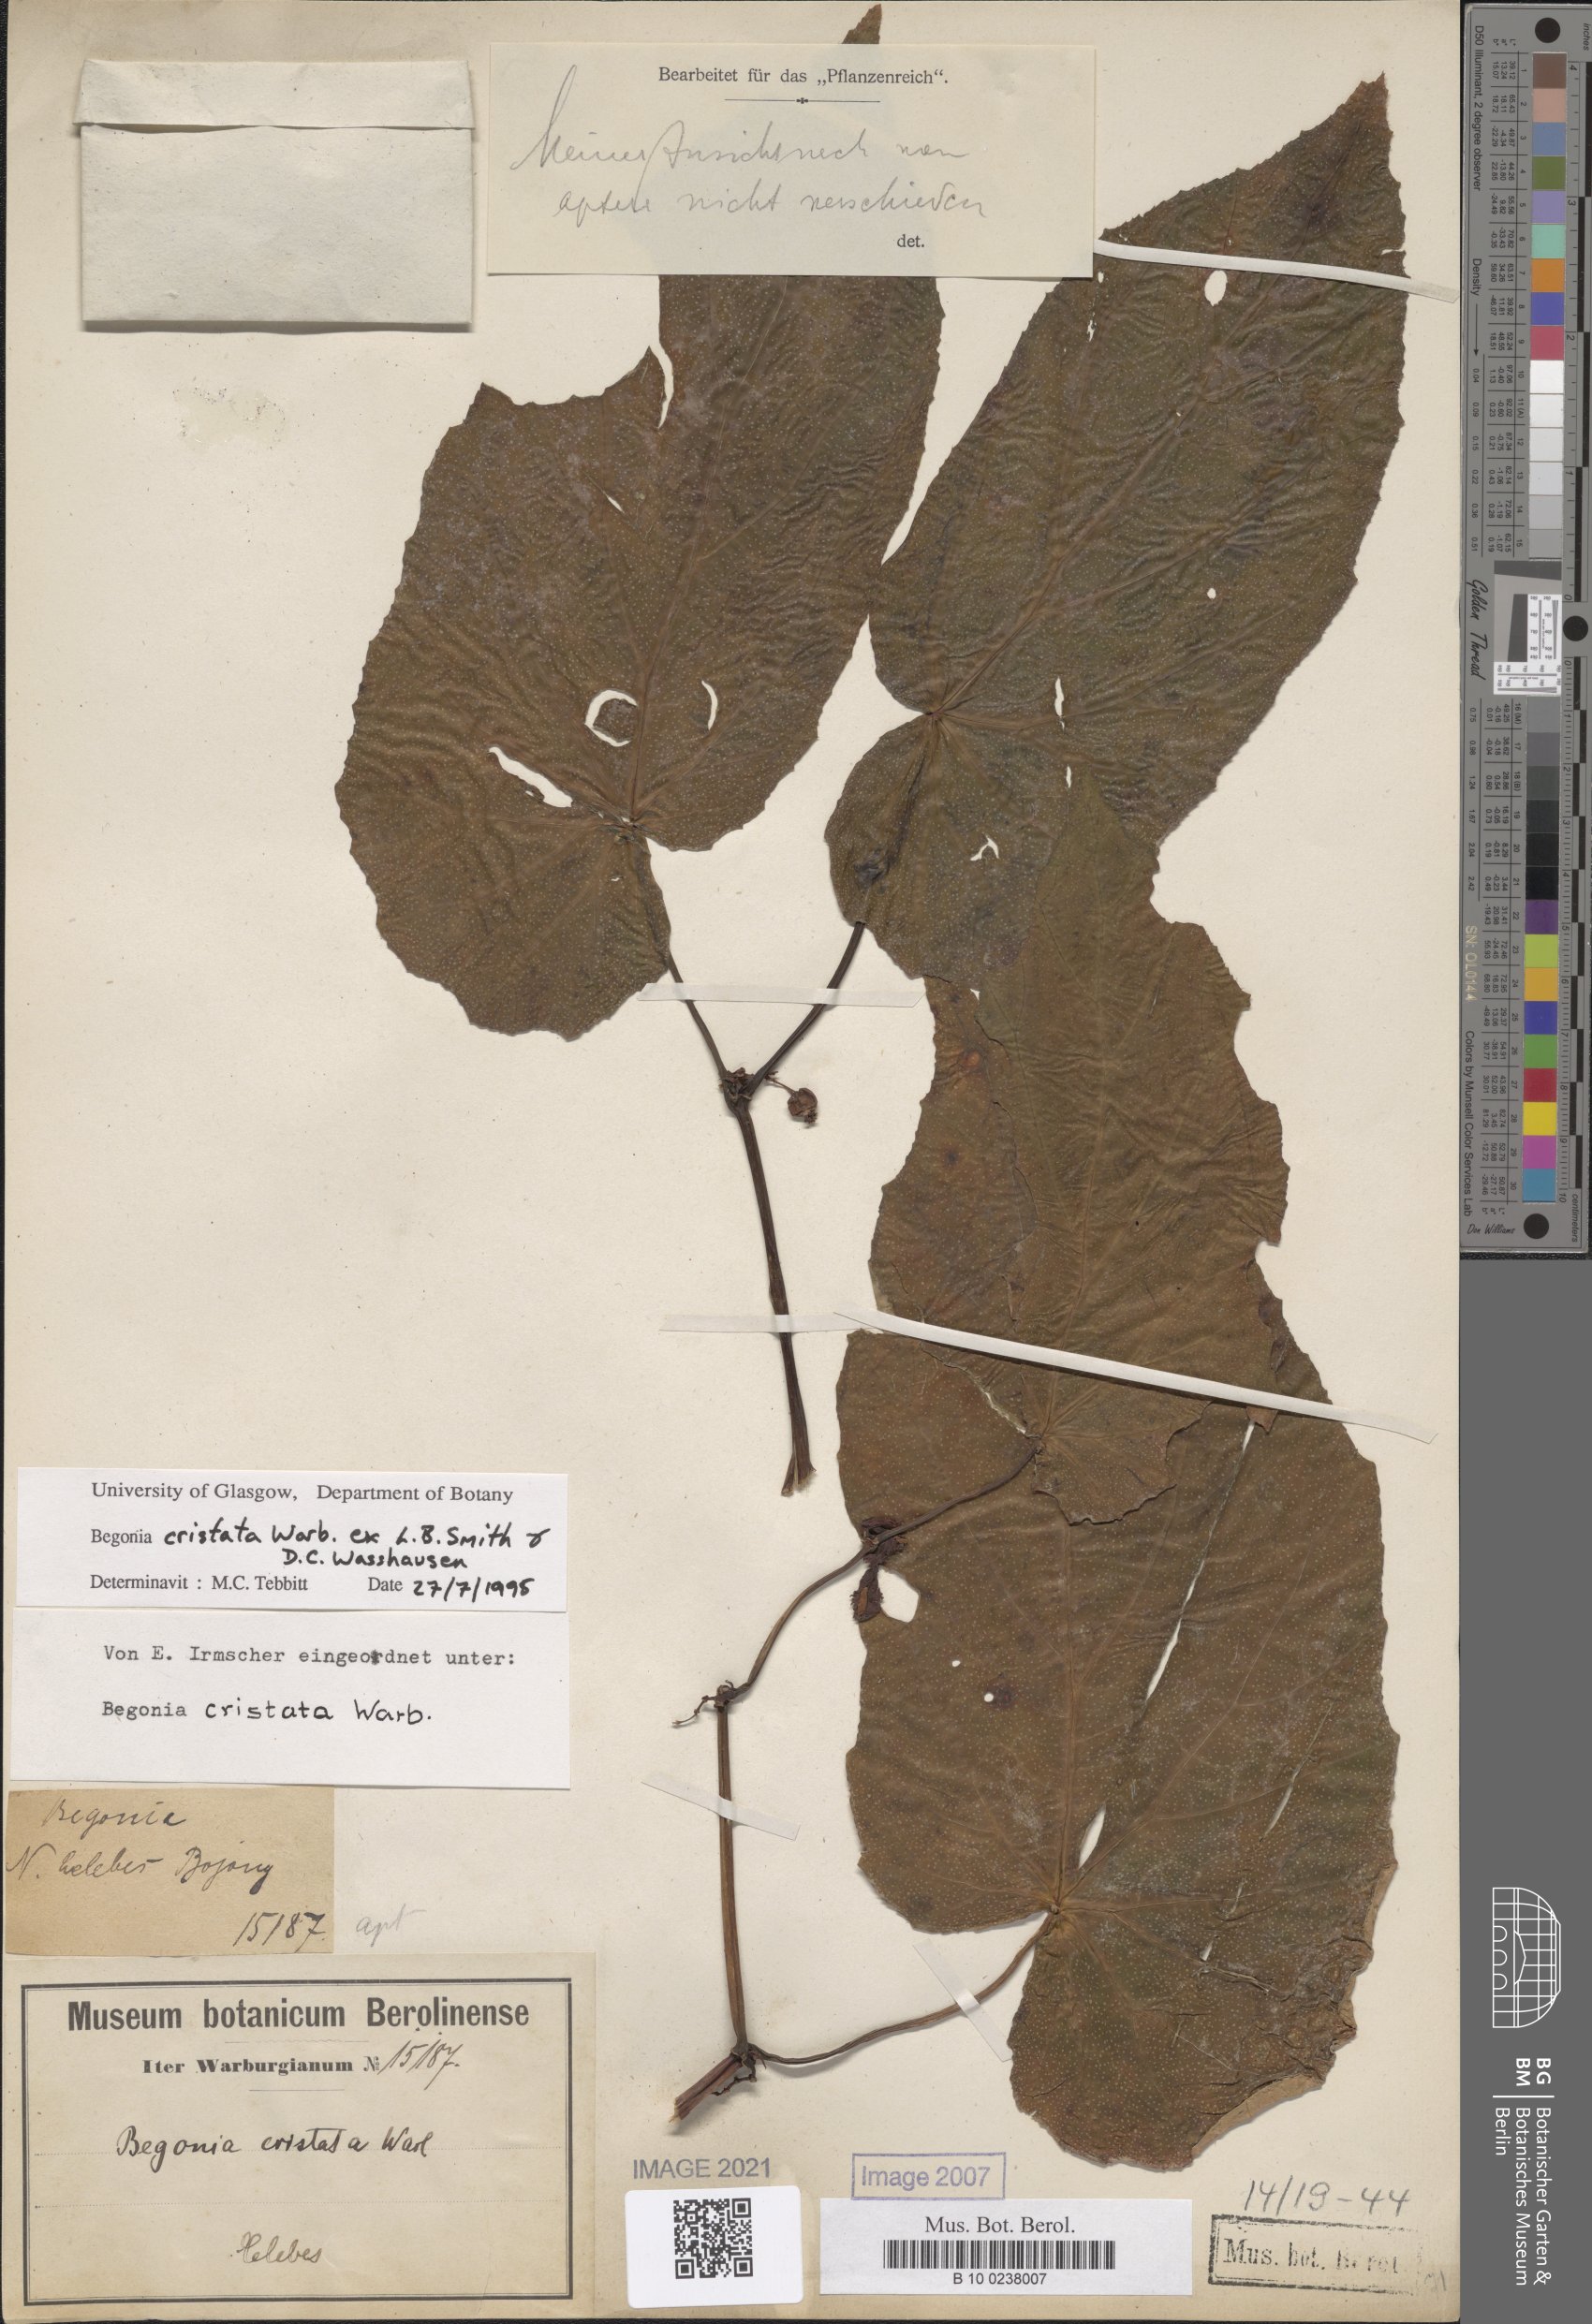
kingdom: Plantae
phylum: Tracheophyta
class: Magnoliopsida
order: Cucurbitales
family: Begoniaceae
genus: Begonia
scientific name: Begonia aptera
